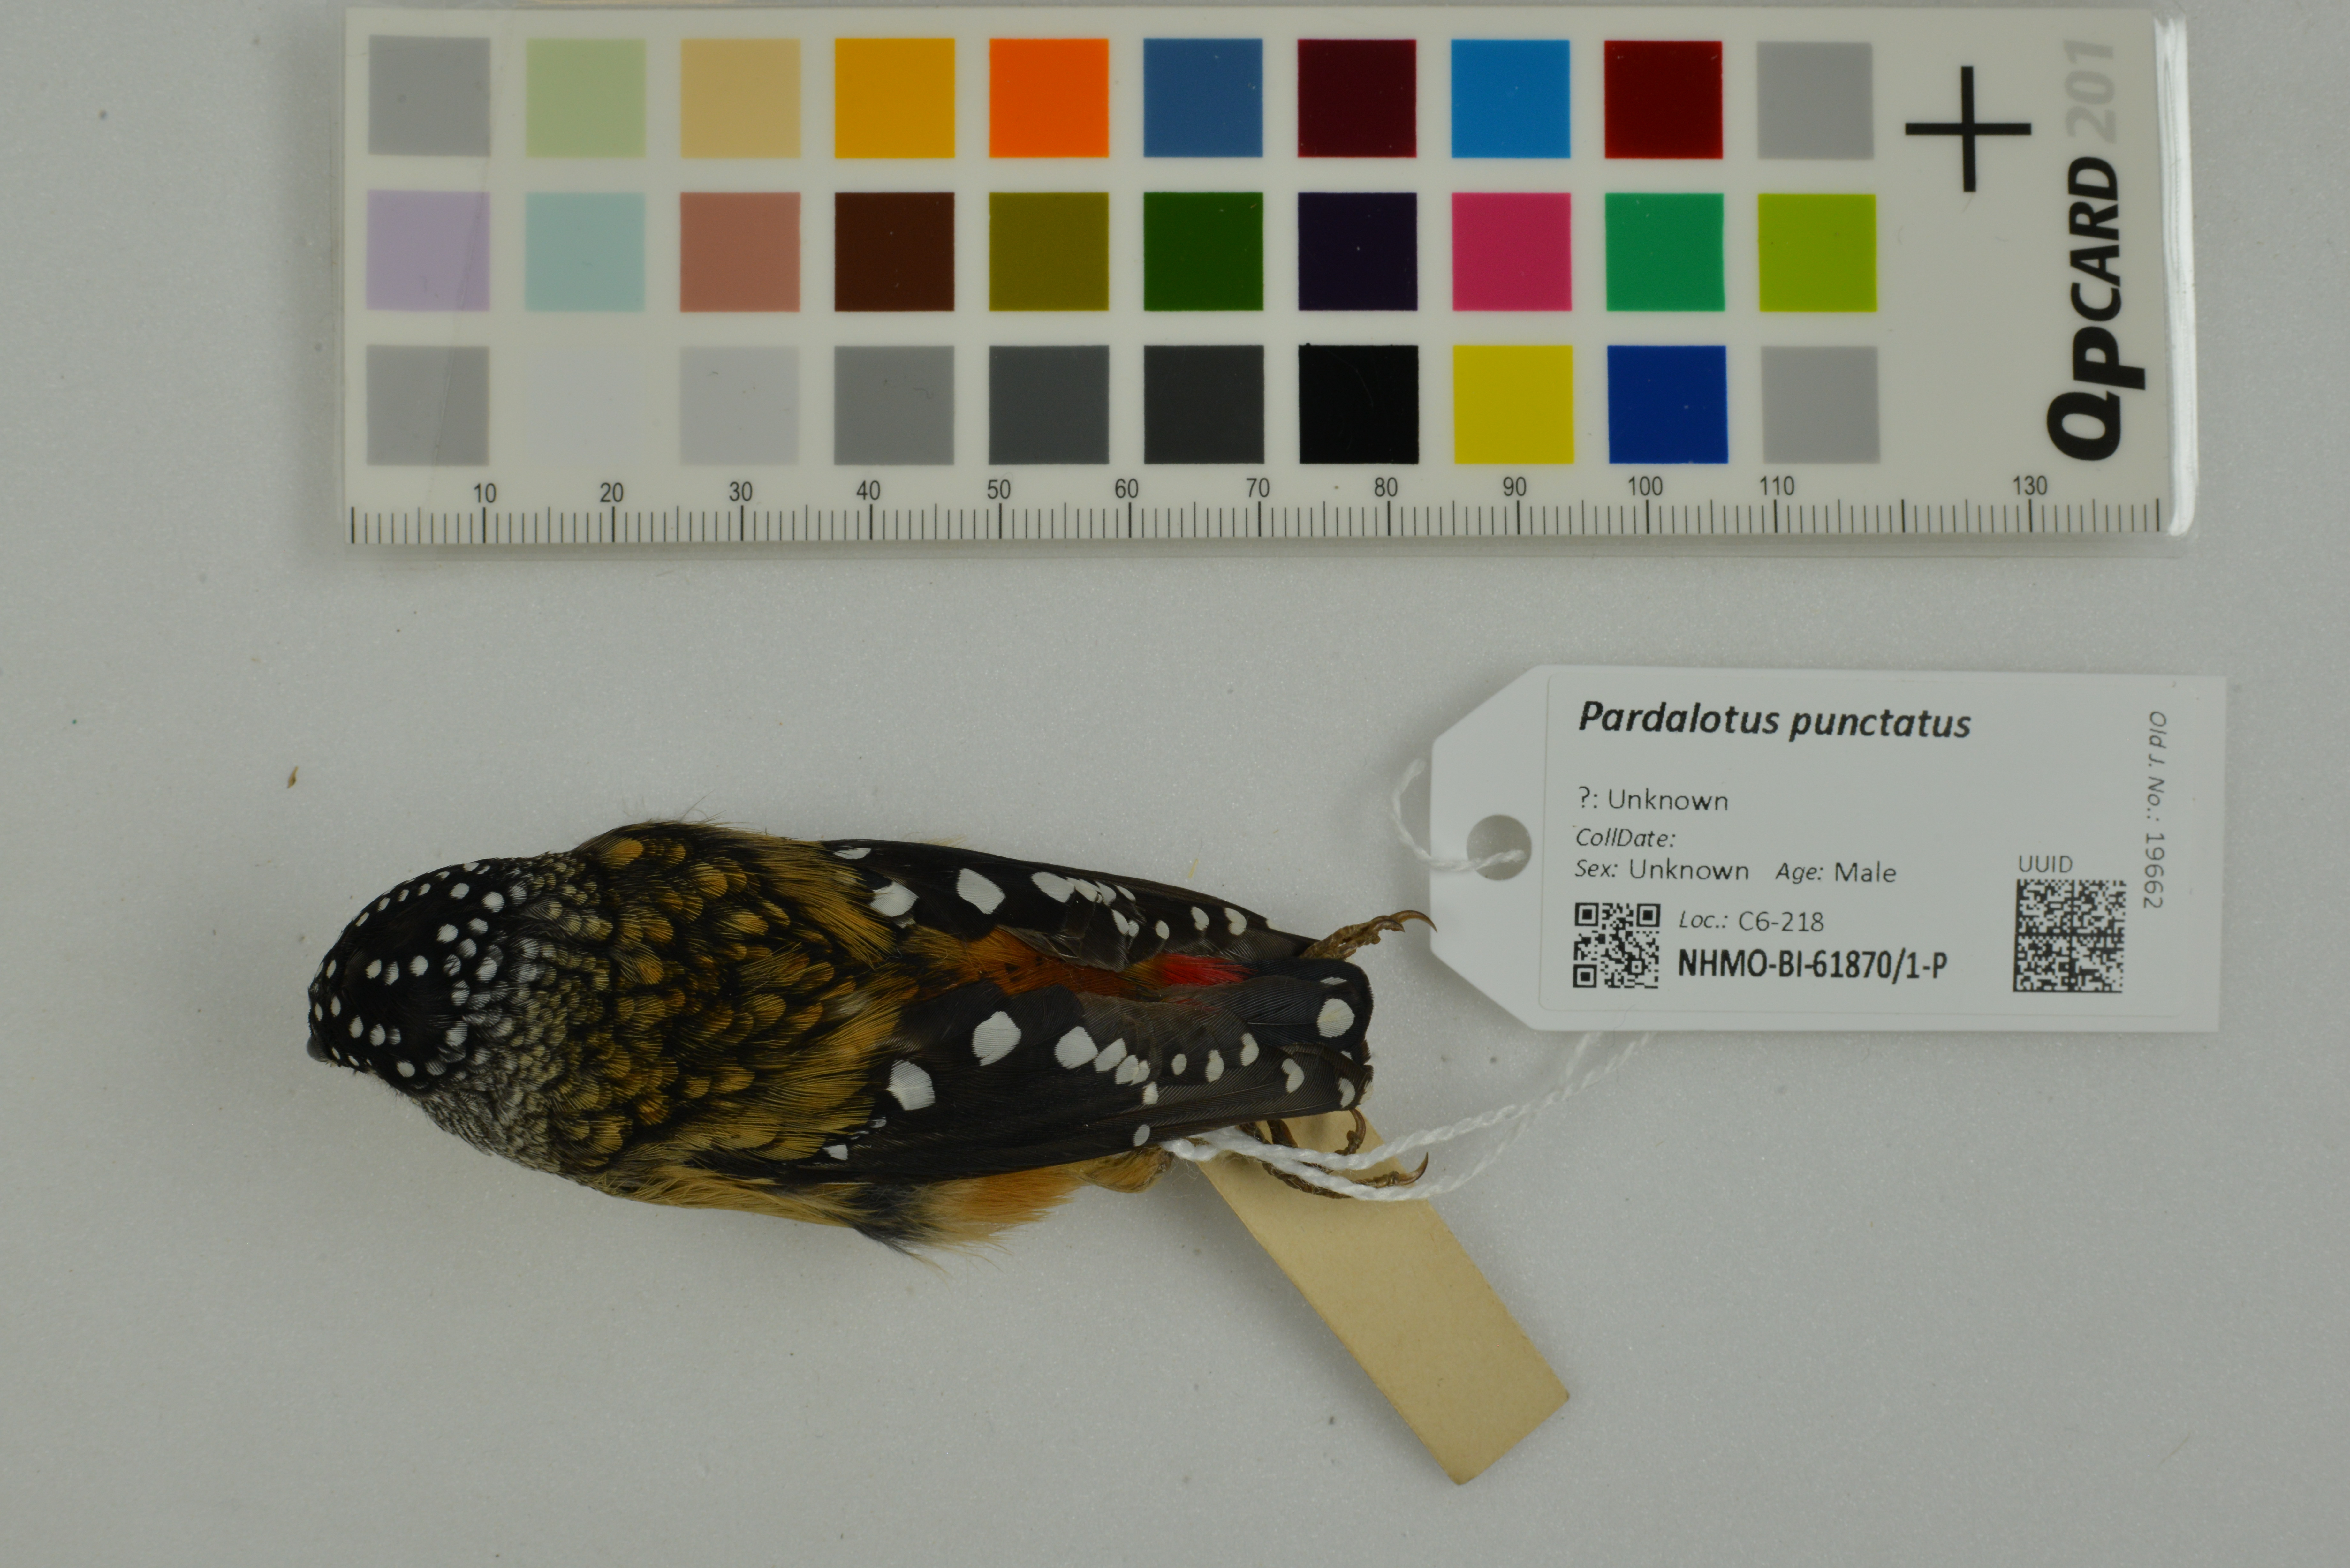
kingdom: Animalia
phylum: Chordata
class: Aves
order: Passeriformes
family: Pardalotidae
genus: Pardalotus
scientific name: Pardalotus punctatus
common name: Spotted pardalote
